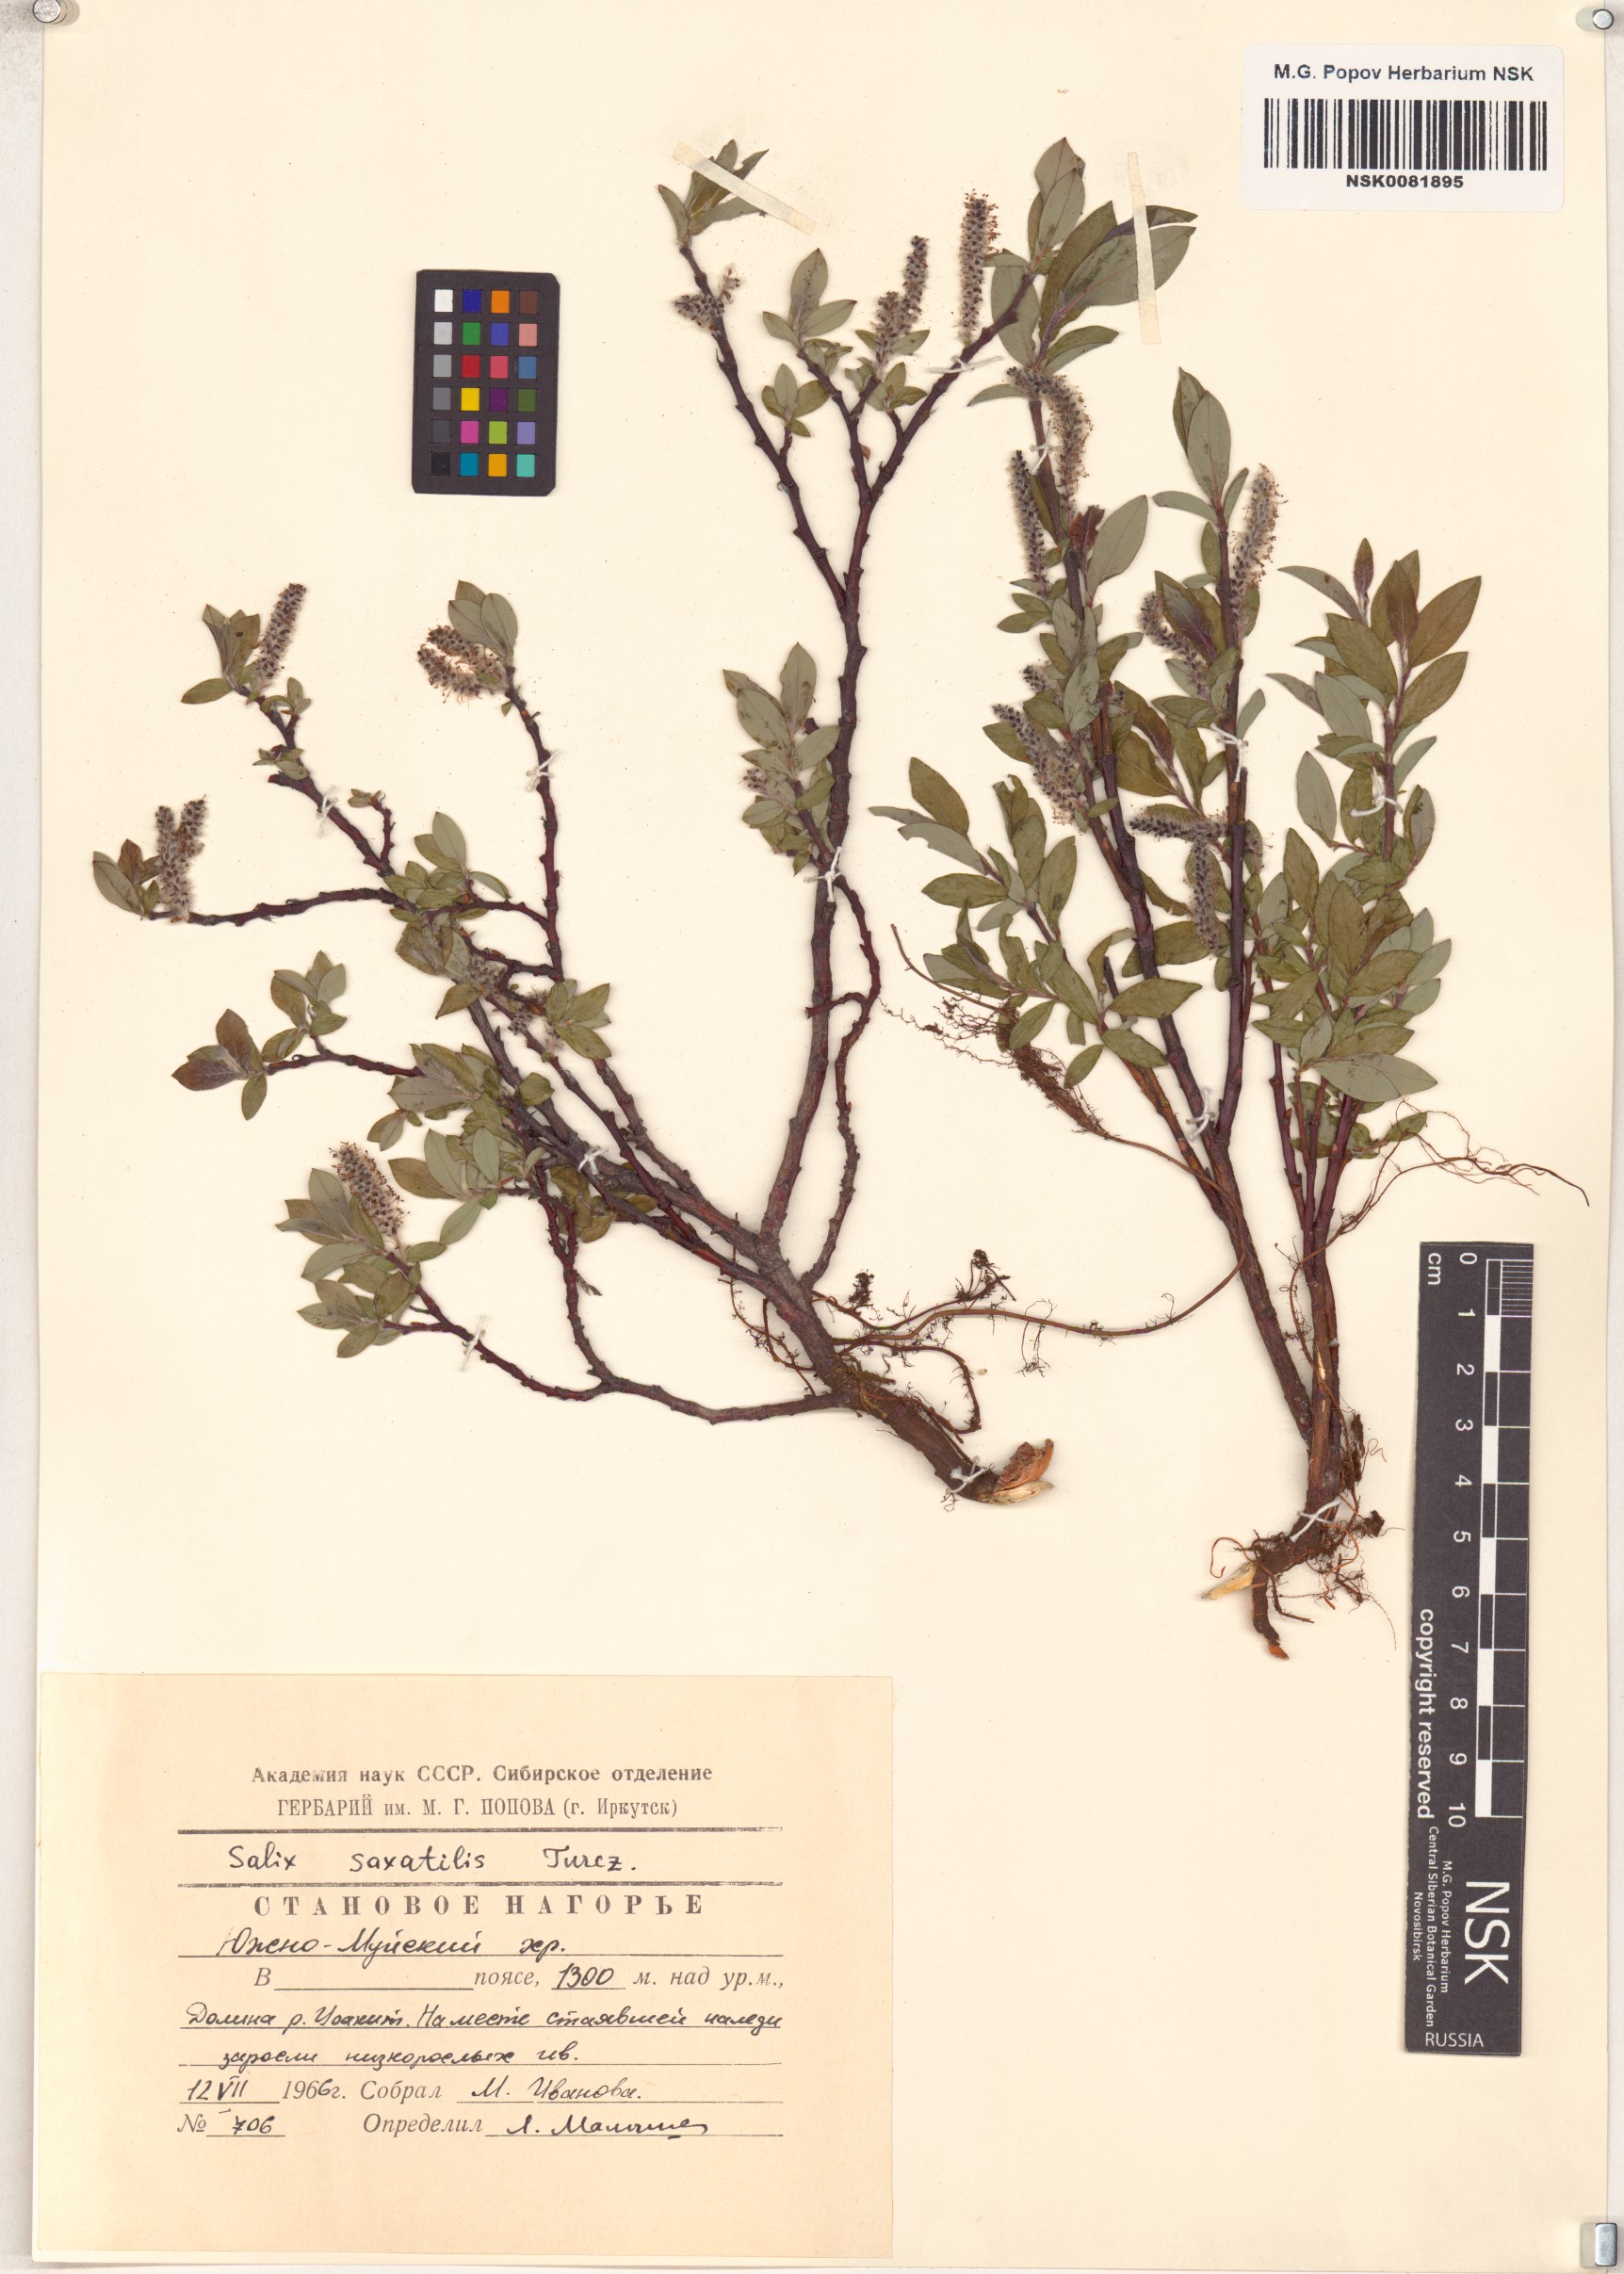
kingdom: Plantae
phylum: Tracheophyta
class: Magnoliopsida
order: Malpighiales
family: Salicaceae
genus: Salix
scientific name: Salix saxatilis
